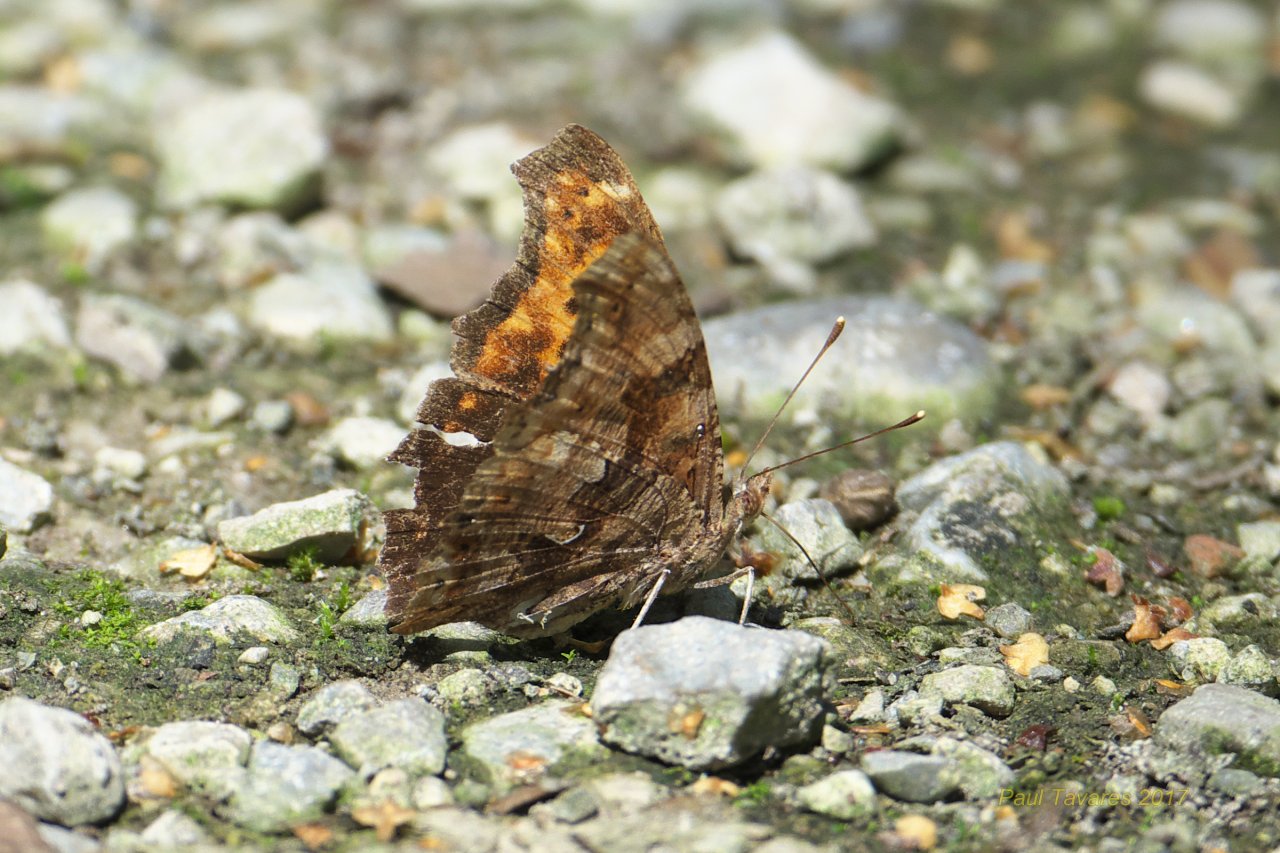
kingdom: Animalia
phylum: Arthropoda
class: Insecta
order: Lepidoptera
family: Nymphalidae
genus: Polygonia
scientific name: Polygonia comma
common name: Eastern Comma
